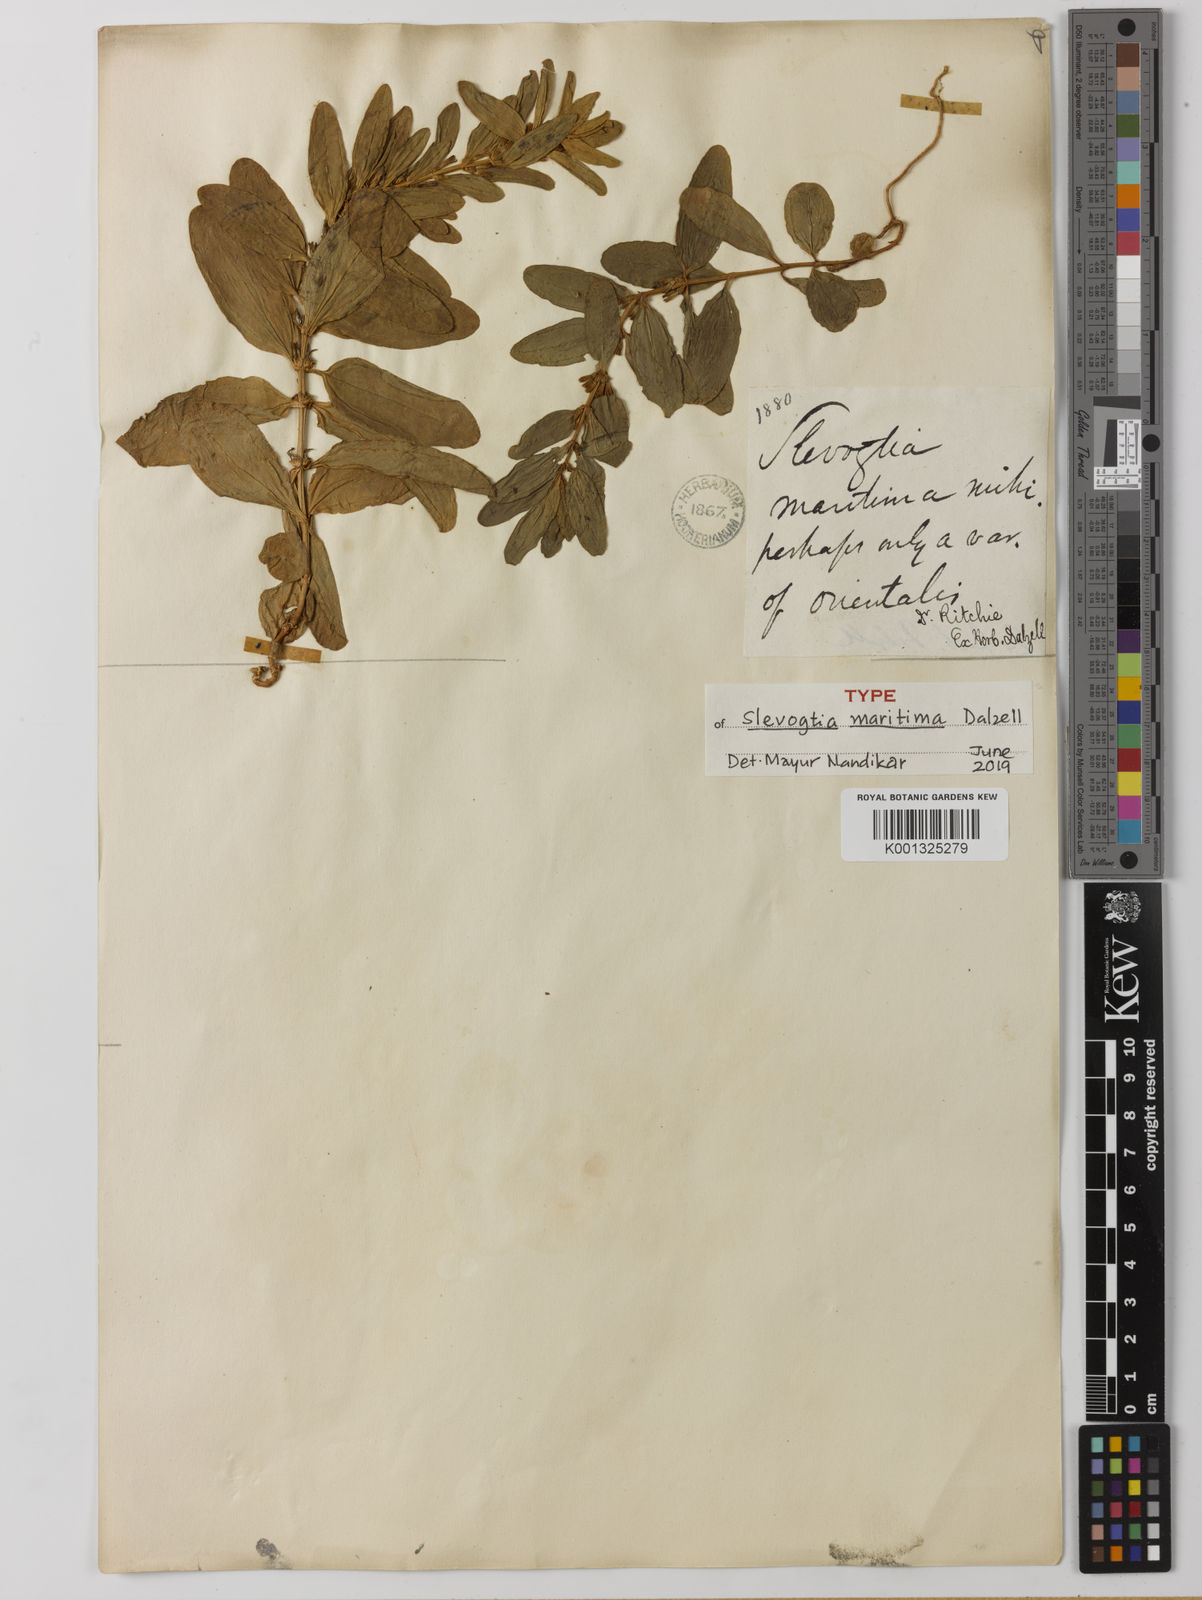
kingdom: Plantae
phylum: Tracheophyta
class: Magnoliopsida
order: Gentianales
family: Gentianaceae
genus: Enicostema
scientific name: Enicostema axillare
